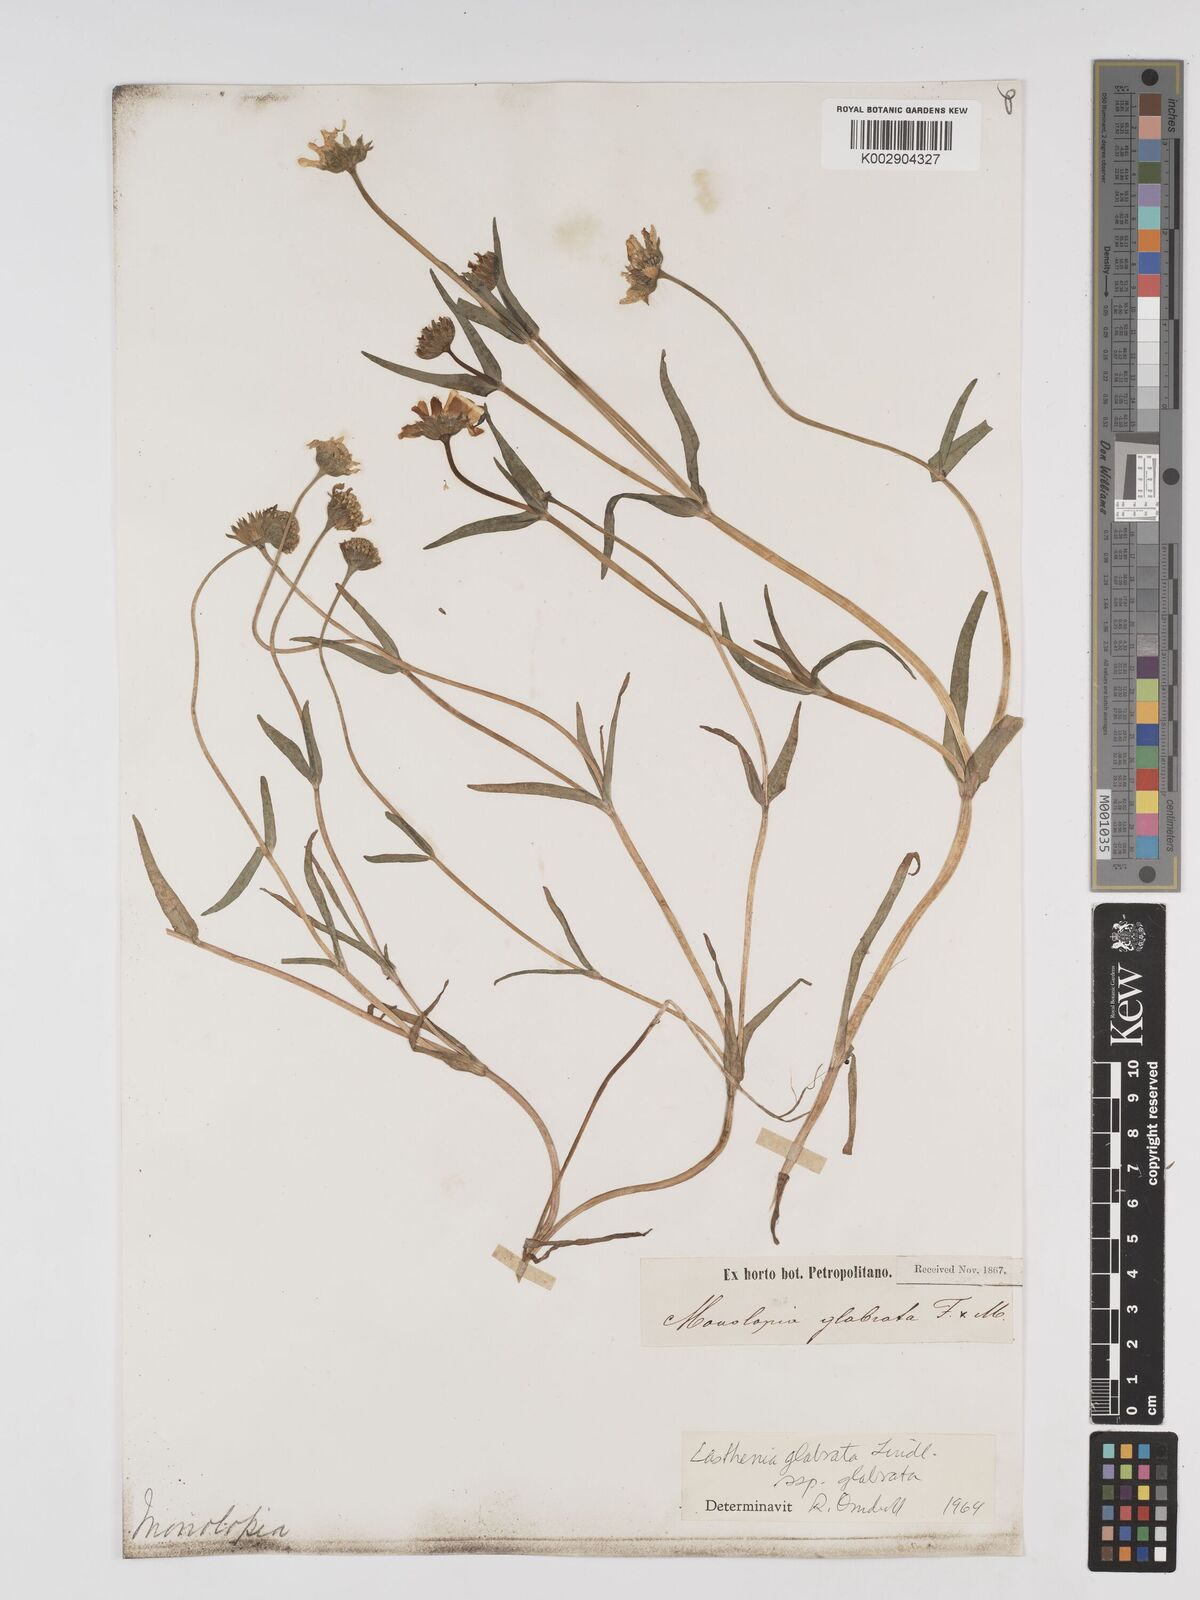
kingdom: Plantae
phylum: Tracheophyta
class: Magnoliopsida
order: Asterales
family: Asteraceae
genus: Lasthenia
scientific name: Lasthenia glabrata
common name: Yellow-ray lasthenia
